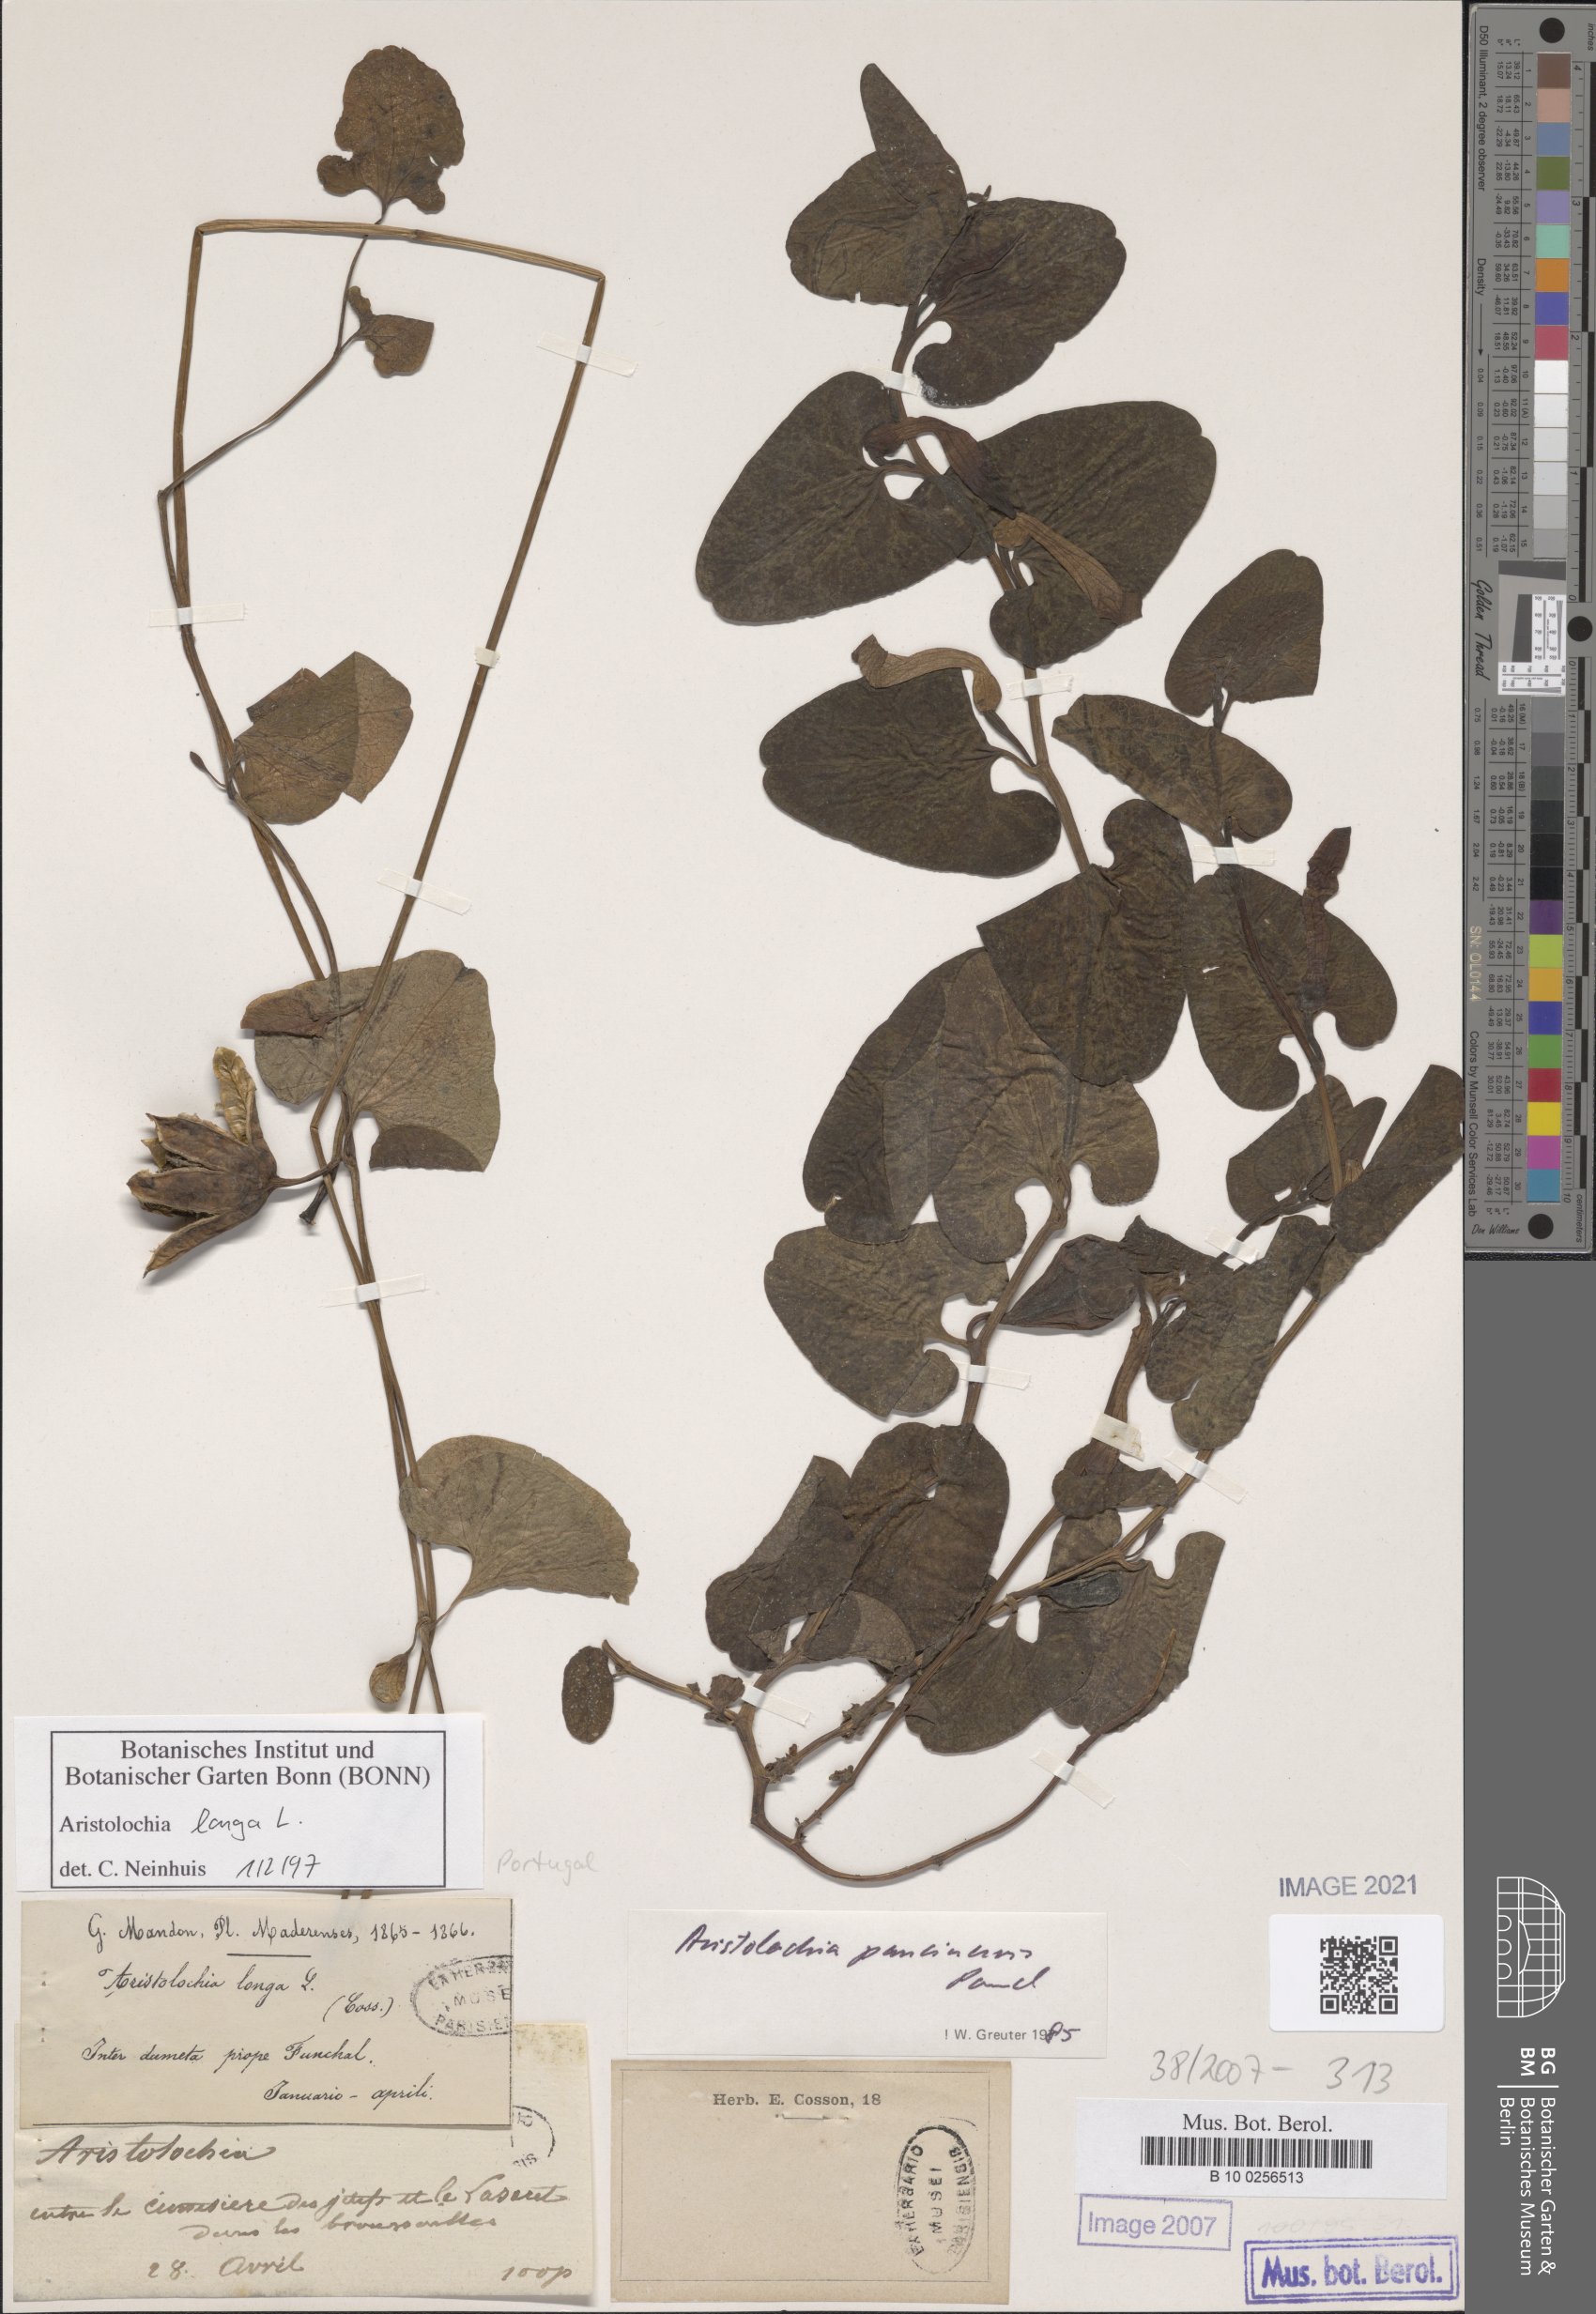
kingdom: Plantae
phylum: Tracheophyta
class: Magnoliopsida
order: Piperales
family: Aristolochiaceae
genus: Aristolochia
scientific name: Aristolochia fontanesii
